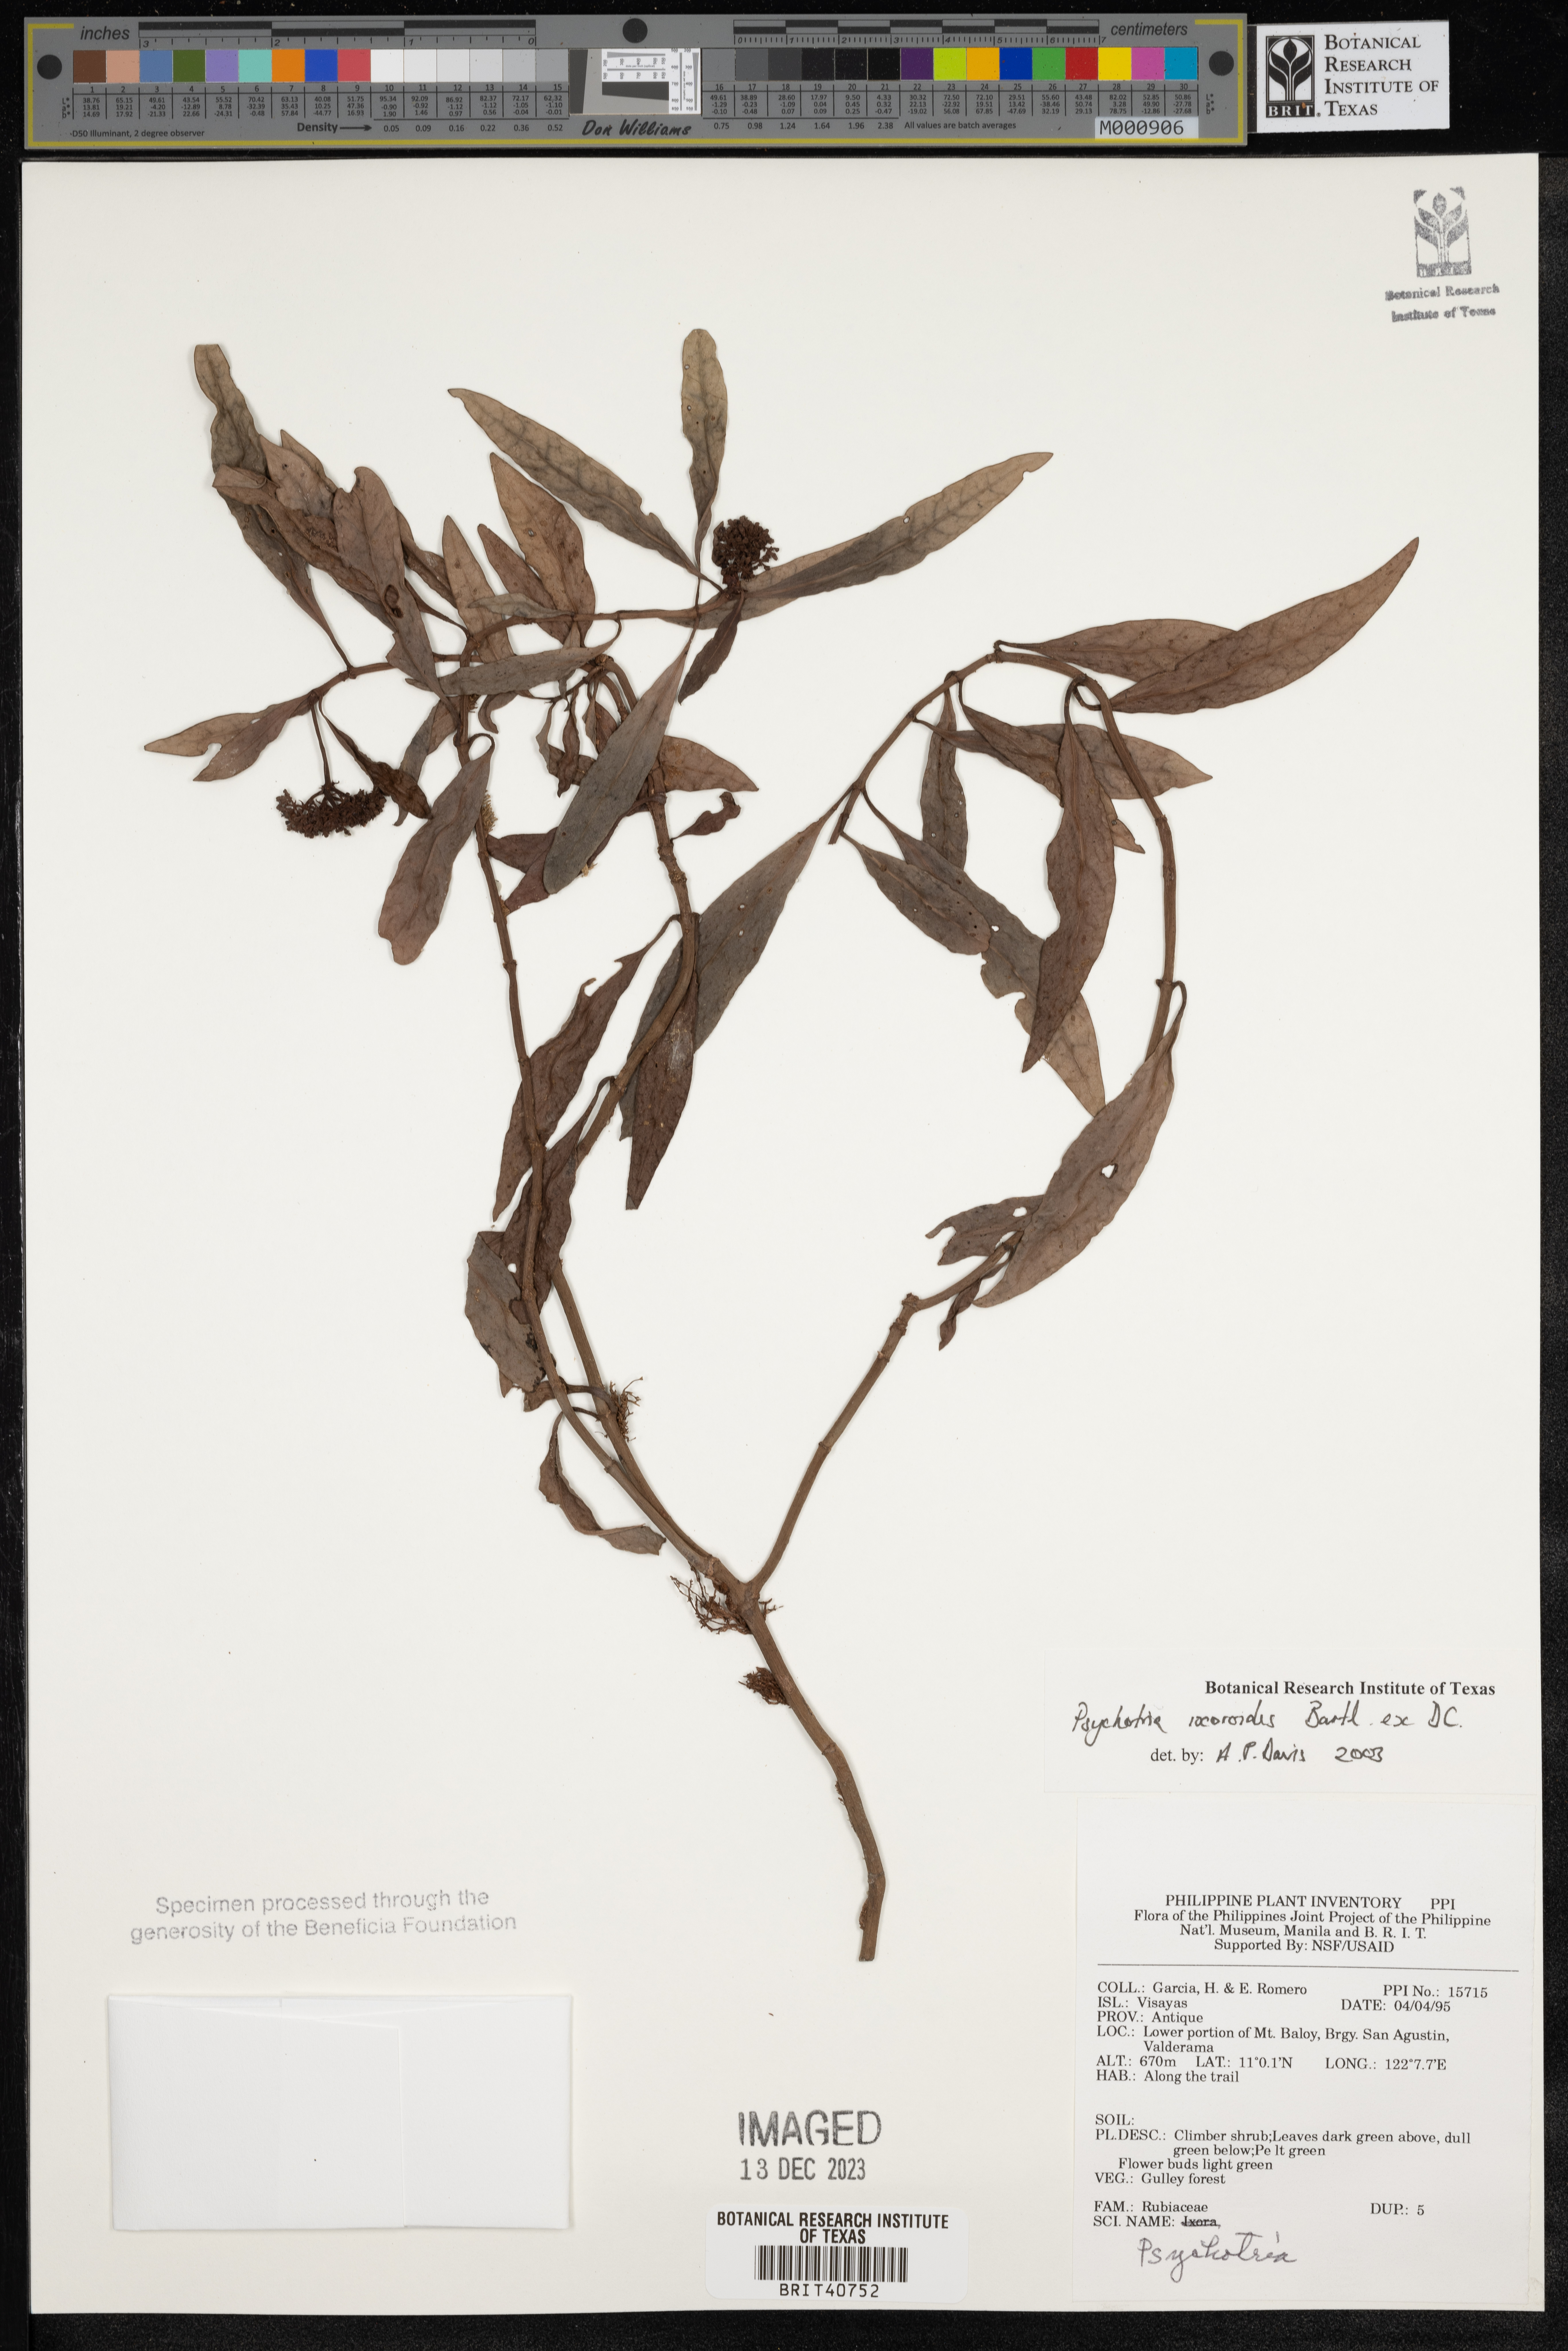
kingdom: Plantae
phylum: Tracheophyta
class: Magnoliopsida
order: Gentianales
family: Rubiaceae
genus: Psychotria
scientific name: Psychotria ixoroides
